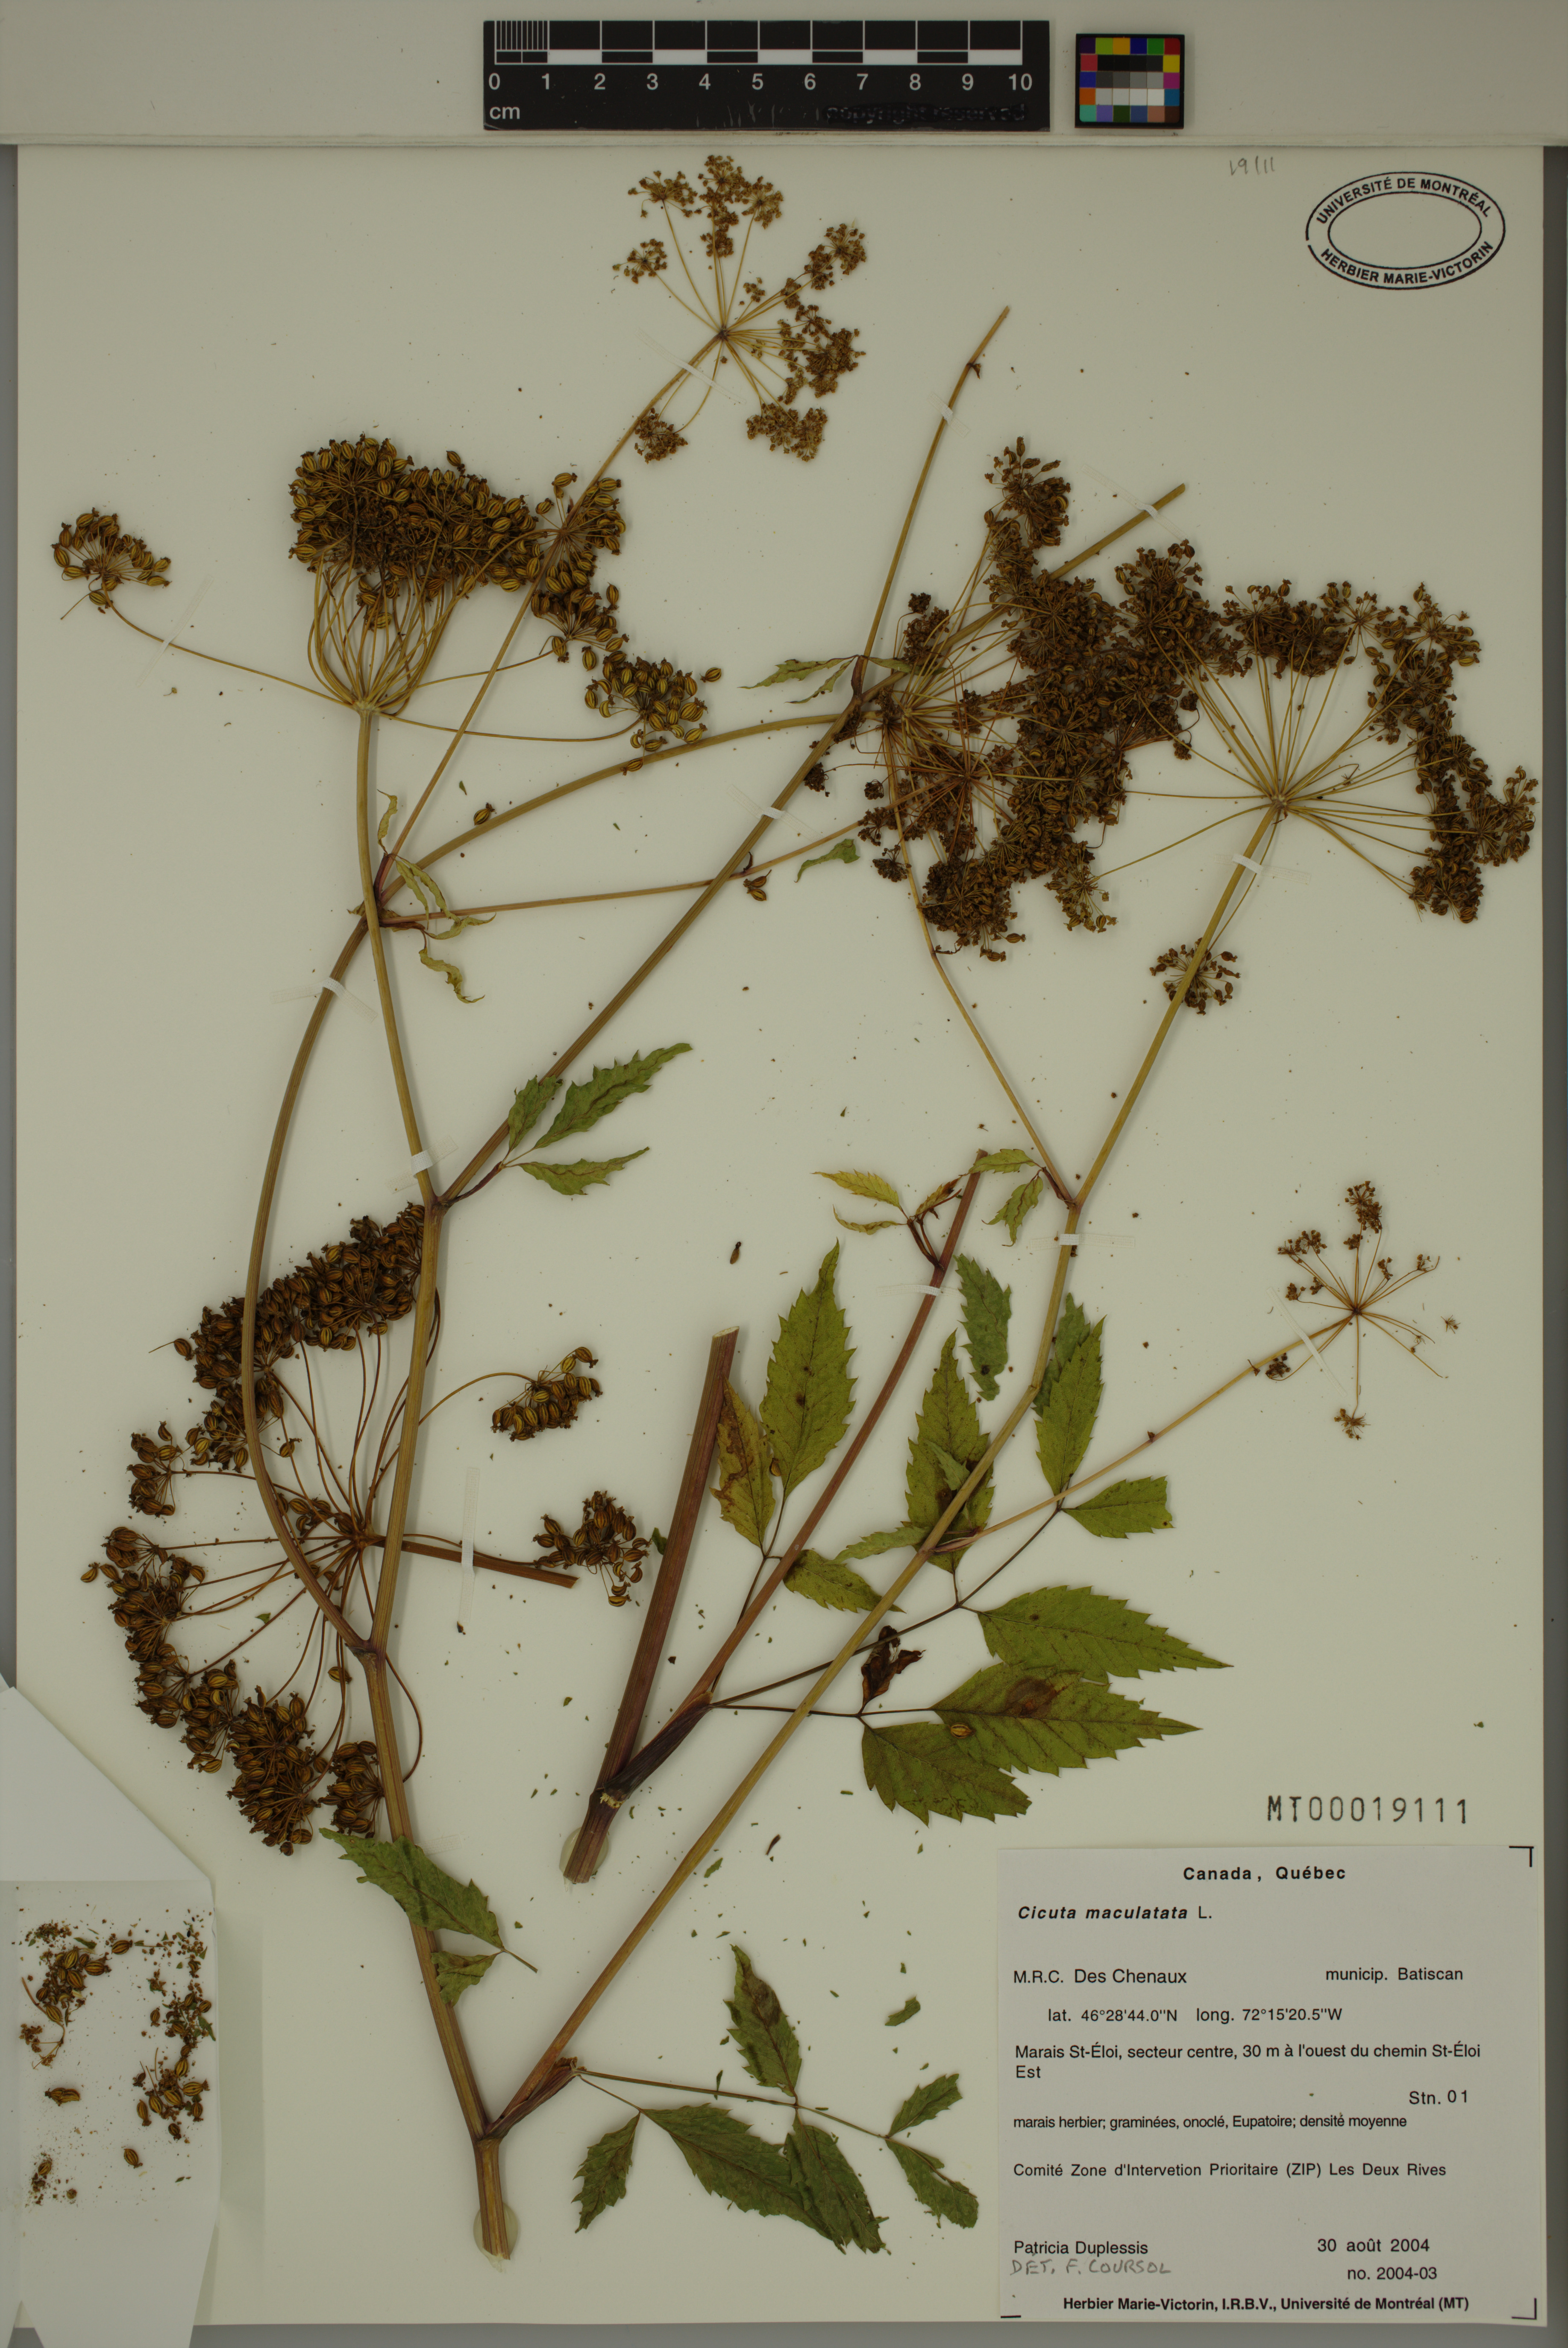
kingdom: Plantae
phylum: Tracheophyta
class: Magnoliopsida
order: Apiales
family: Apiaceae
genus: Cicuta
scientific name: Cicuta maculata
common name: Spotted cowbane
